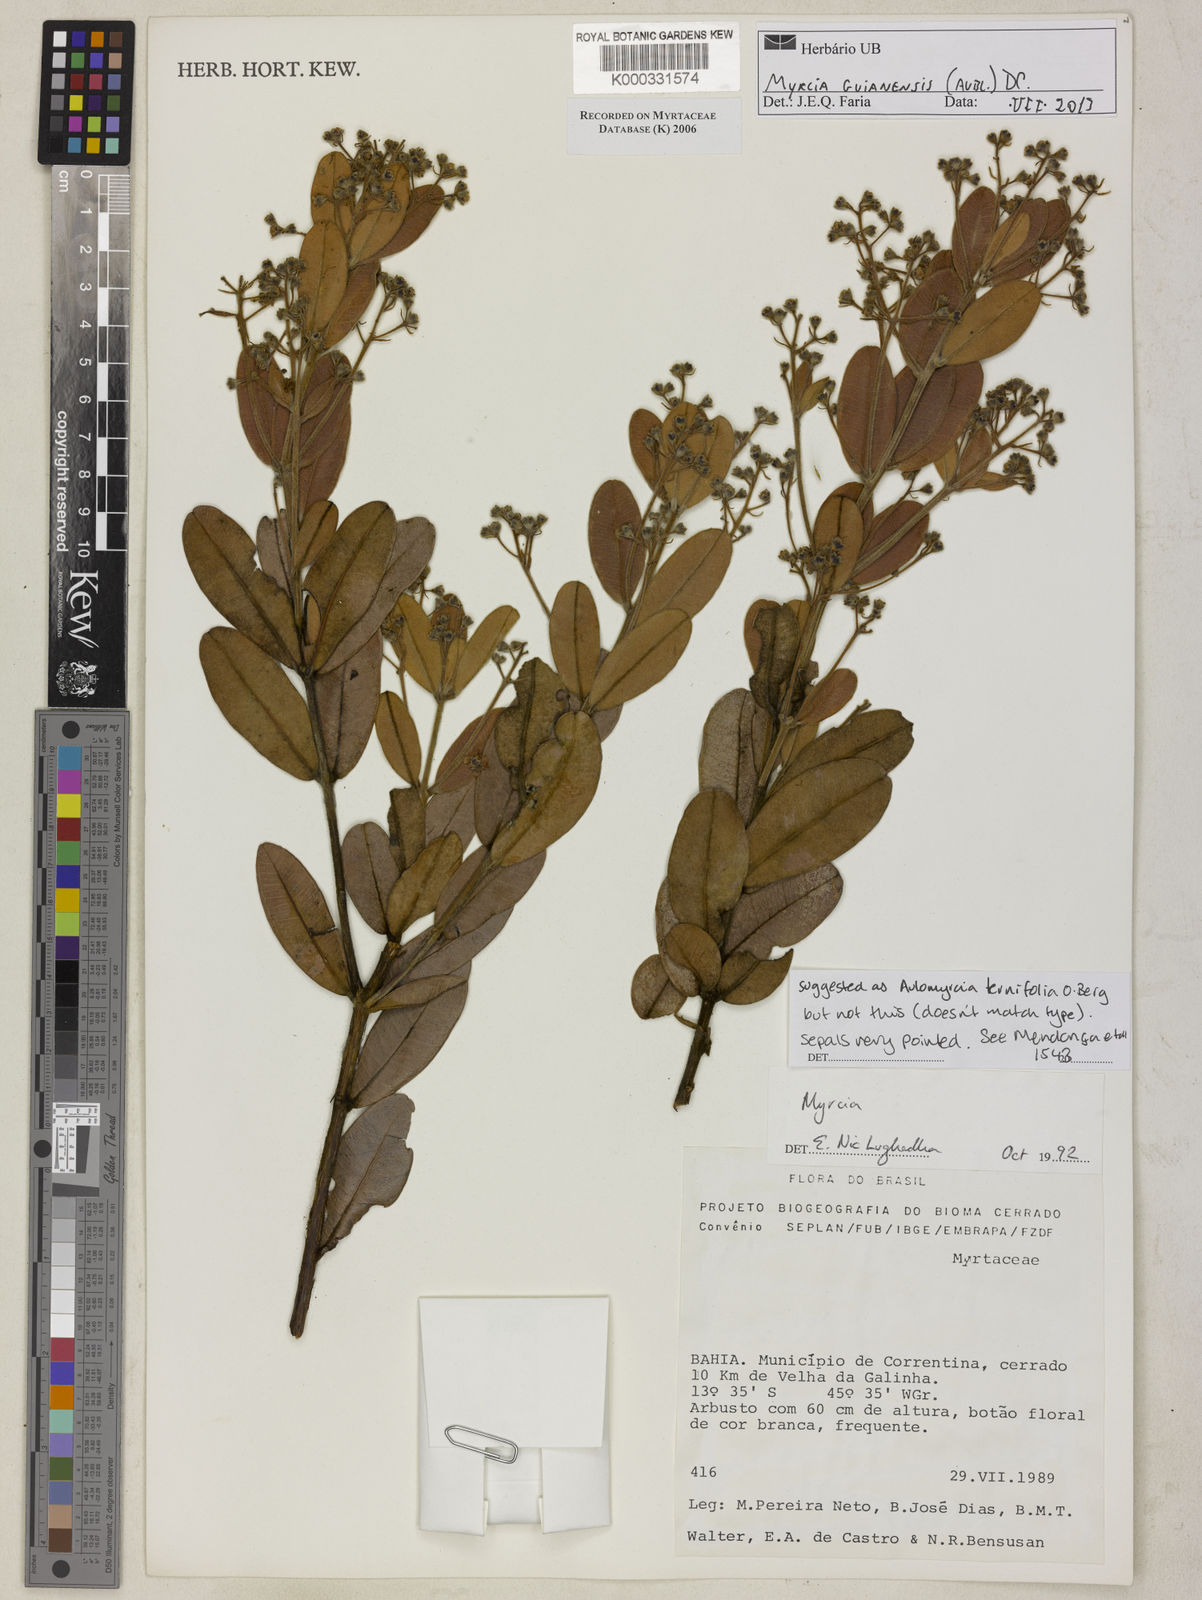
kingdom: Plantae
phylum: Tracheophyta
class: Magnoliopsida
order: Myrtales
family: Myrtaceae
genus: Myrcia
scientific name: Myrcia
